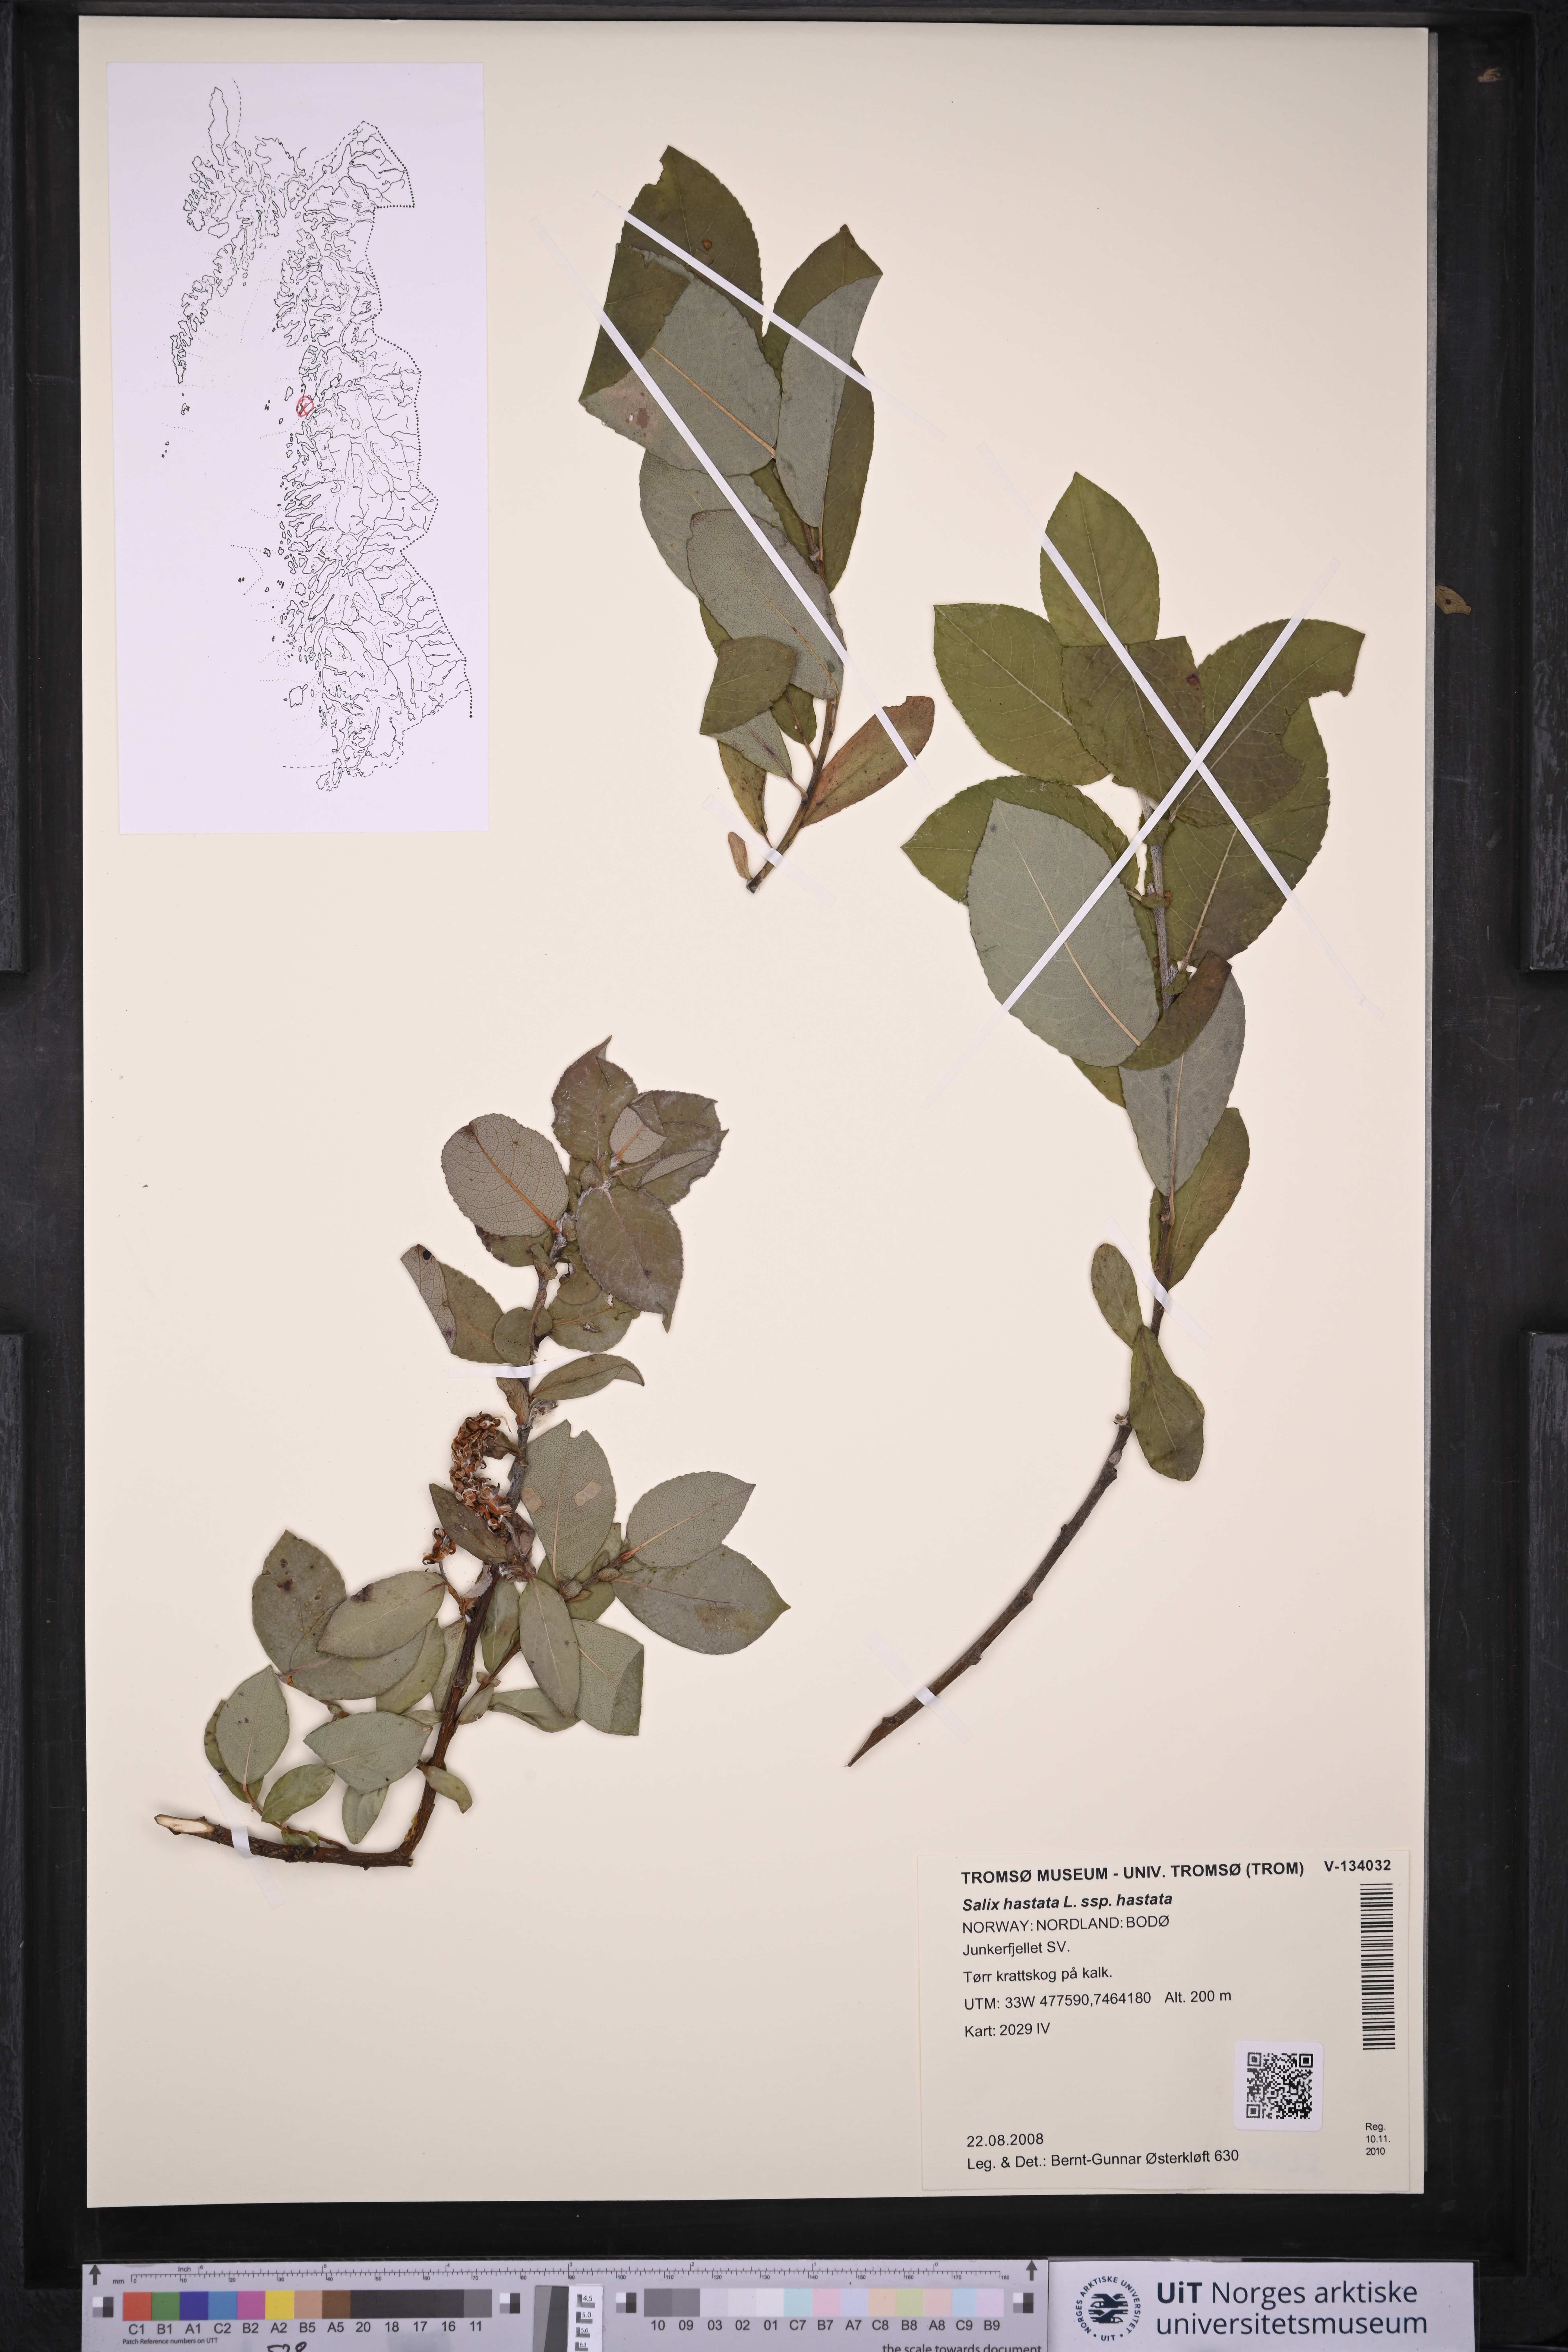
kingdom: Plantae
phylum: Tracheophyta
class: Magnoliopsida
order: Malpighiales
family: Salicaceae
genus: Salix
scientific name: Salix hastata
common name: Halberd willow
